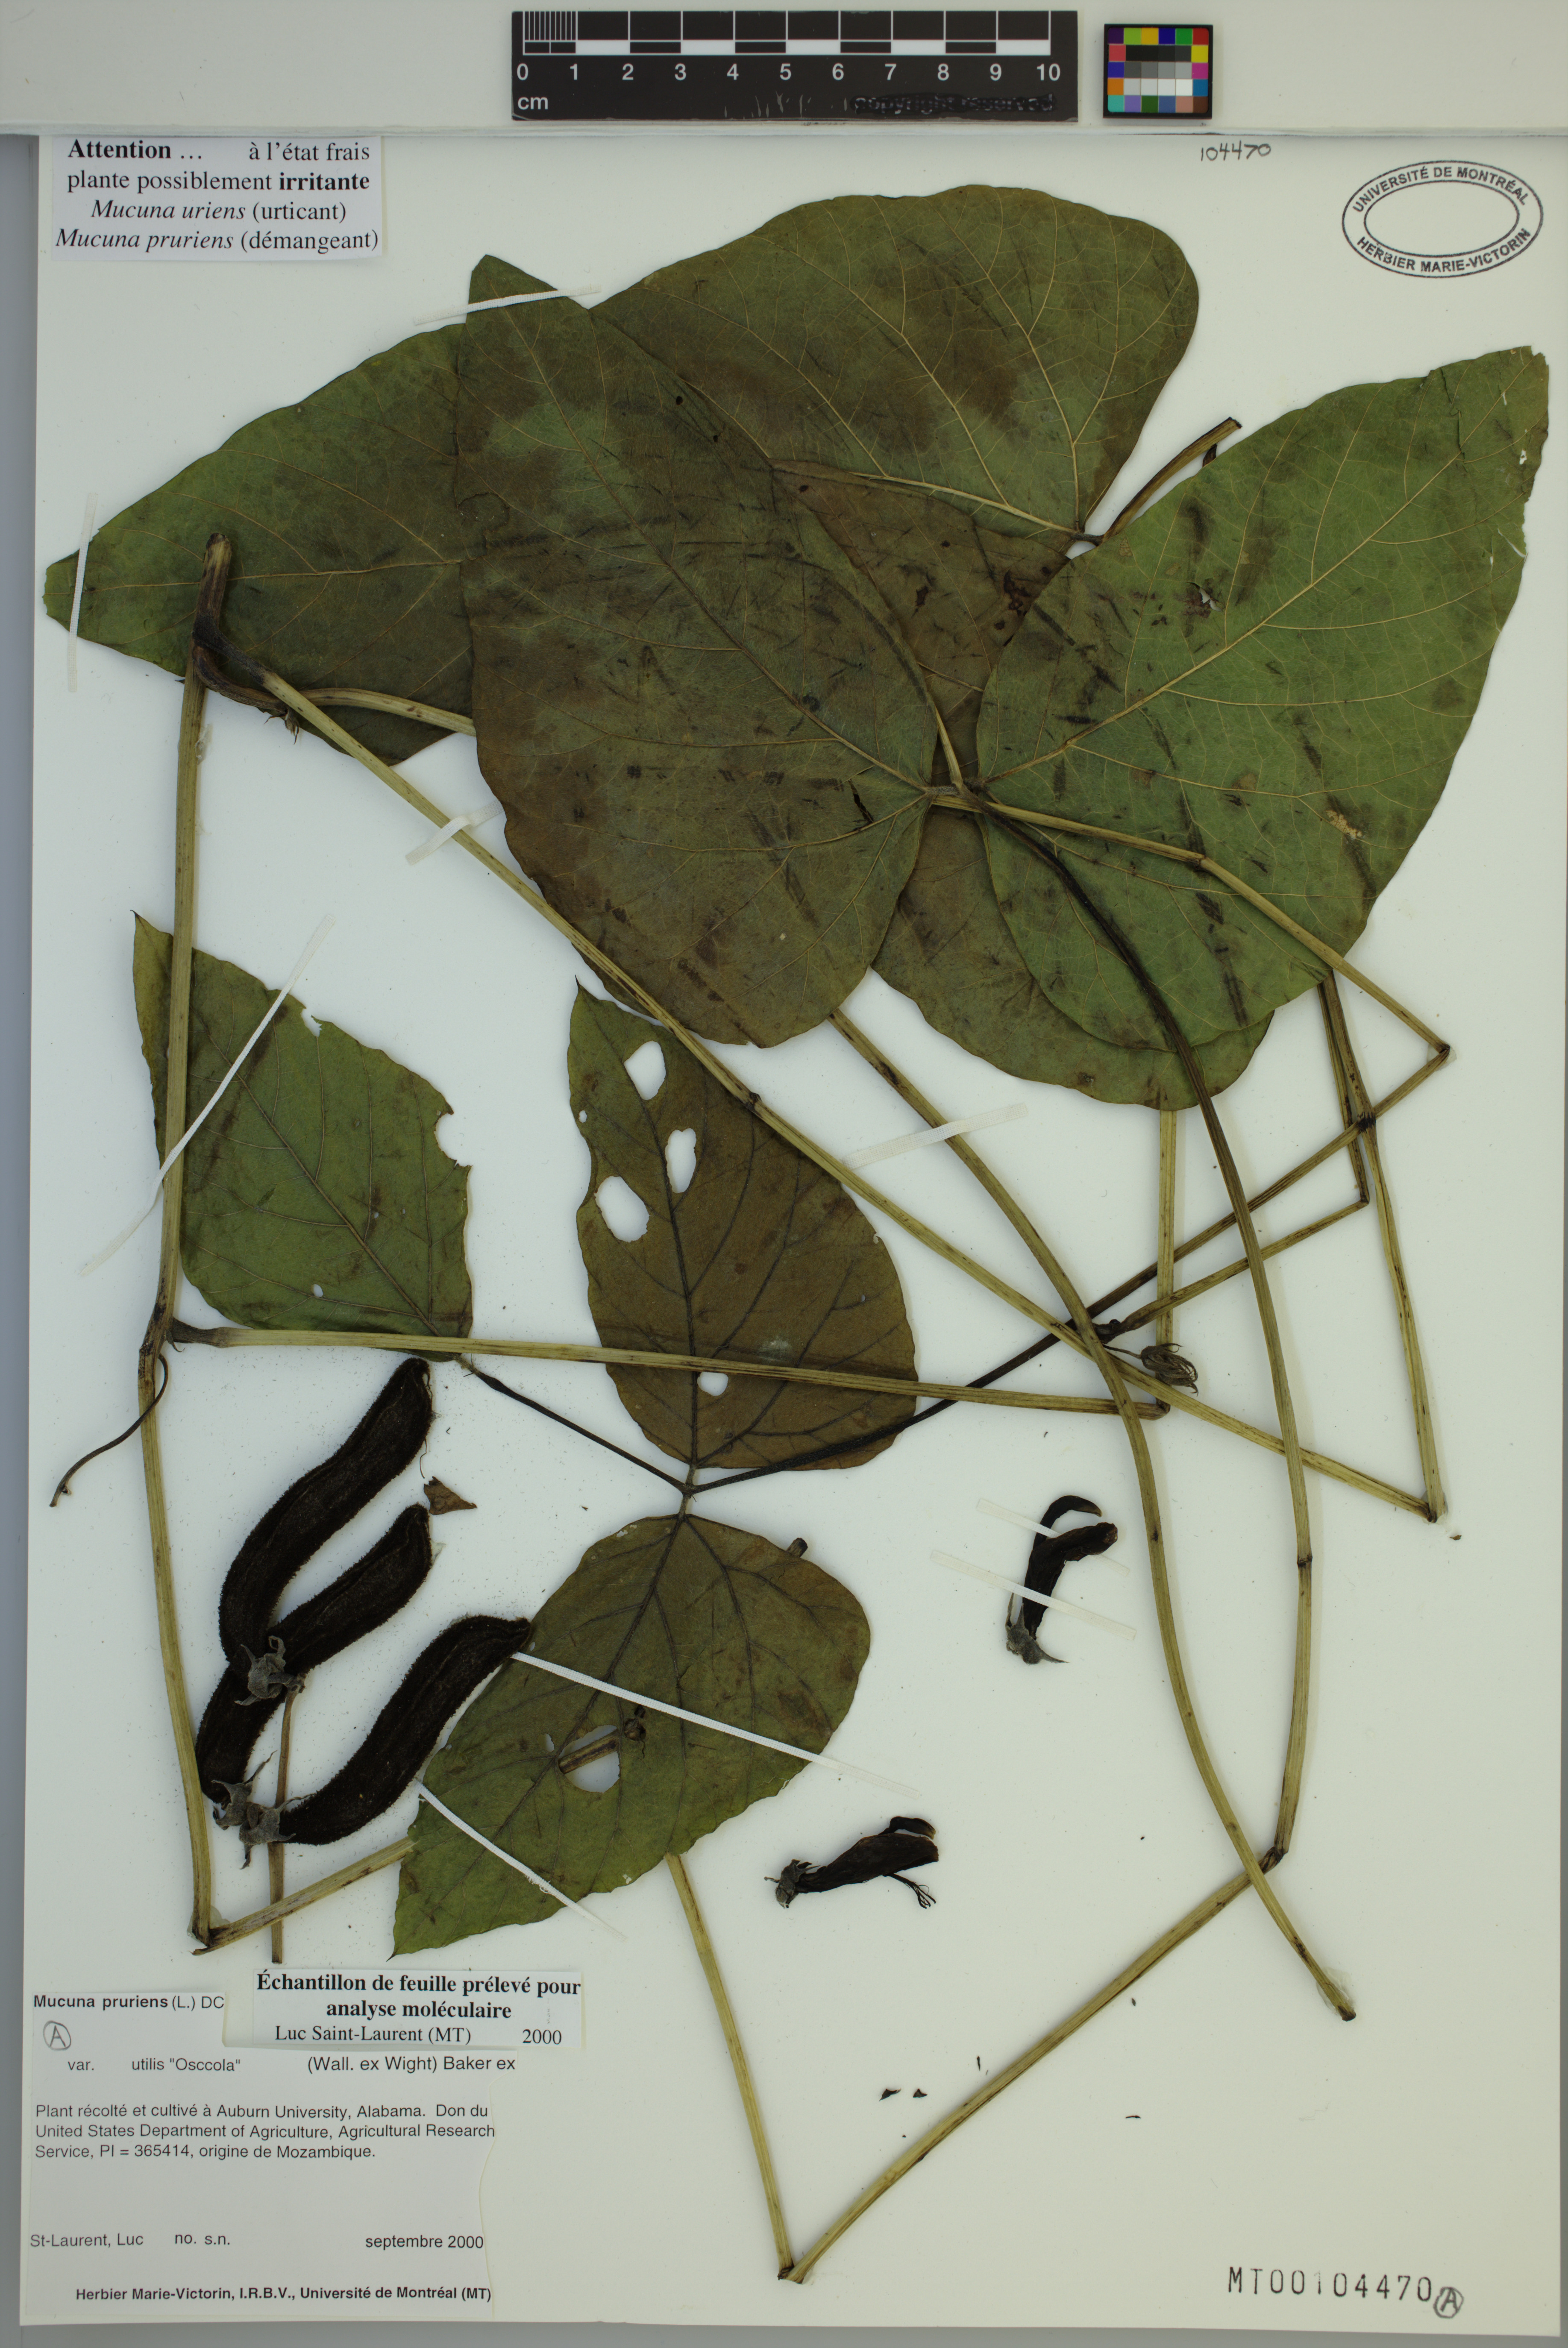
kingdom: Plantae
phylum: Tracheophyta
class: Magnoliopsida
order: Fabales
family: Fabaceae
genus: Mucuna
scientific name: Mucuna pruriens
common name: Cow-itch
